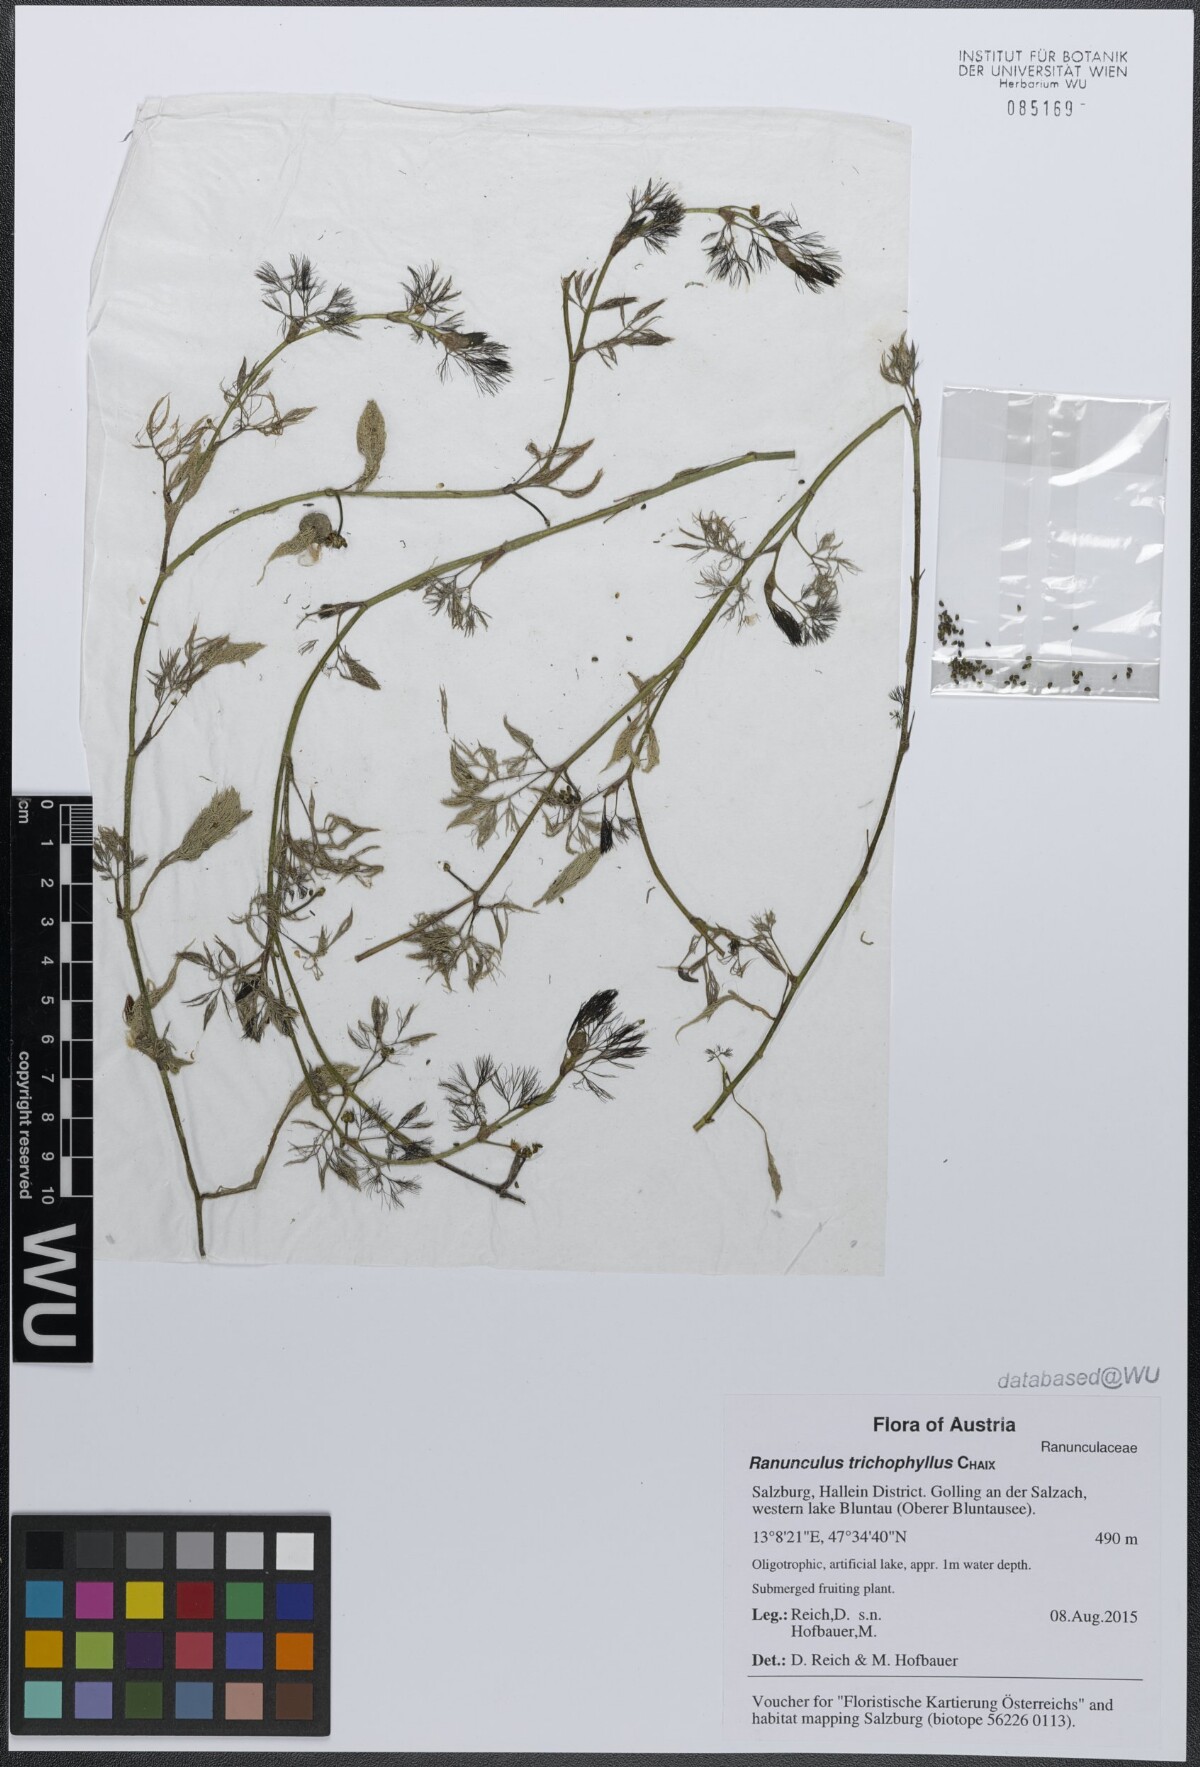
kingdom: Plantae
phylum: Tracheophyta
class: Magnoliopsida
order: Ranunculales
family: Ranunculaceae
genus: Ranunculus
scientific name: Ranunculus trichophyllus
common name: Thread-leaved water-crowfoot
